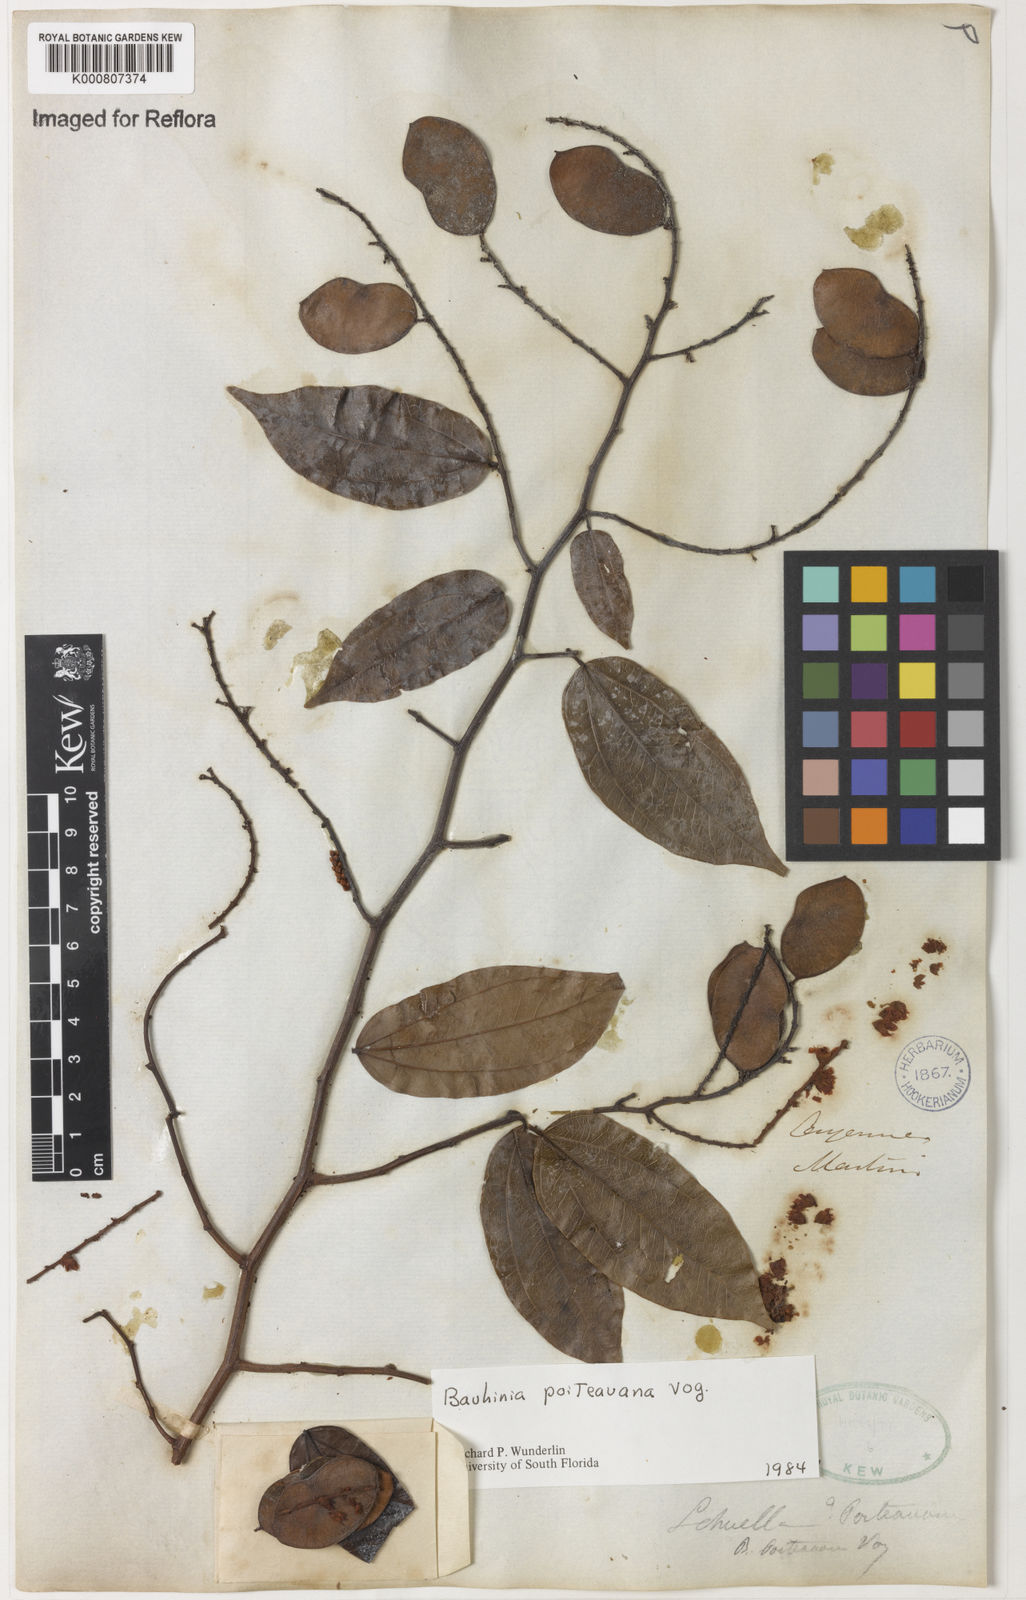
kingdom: Plantae
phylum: Tracheophyta
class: Magnoliopsida
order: Fabales
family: Fabaceae
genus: Schnella
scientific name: Schnella poiteauana
